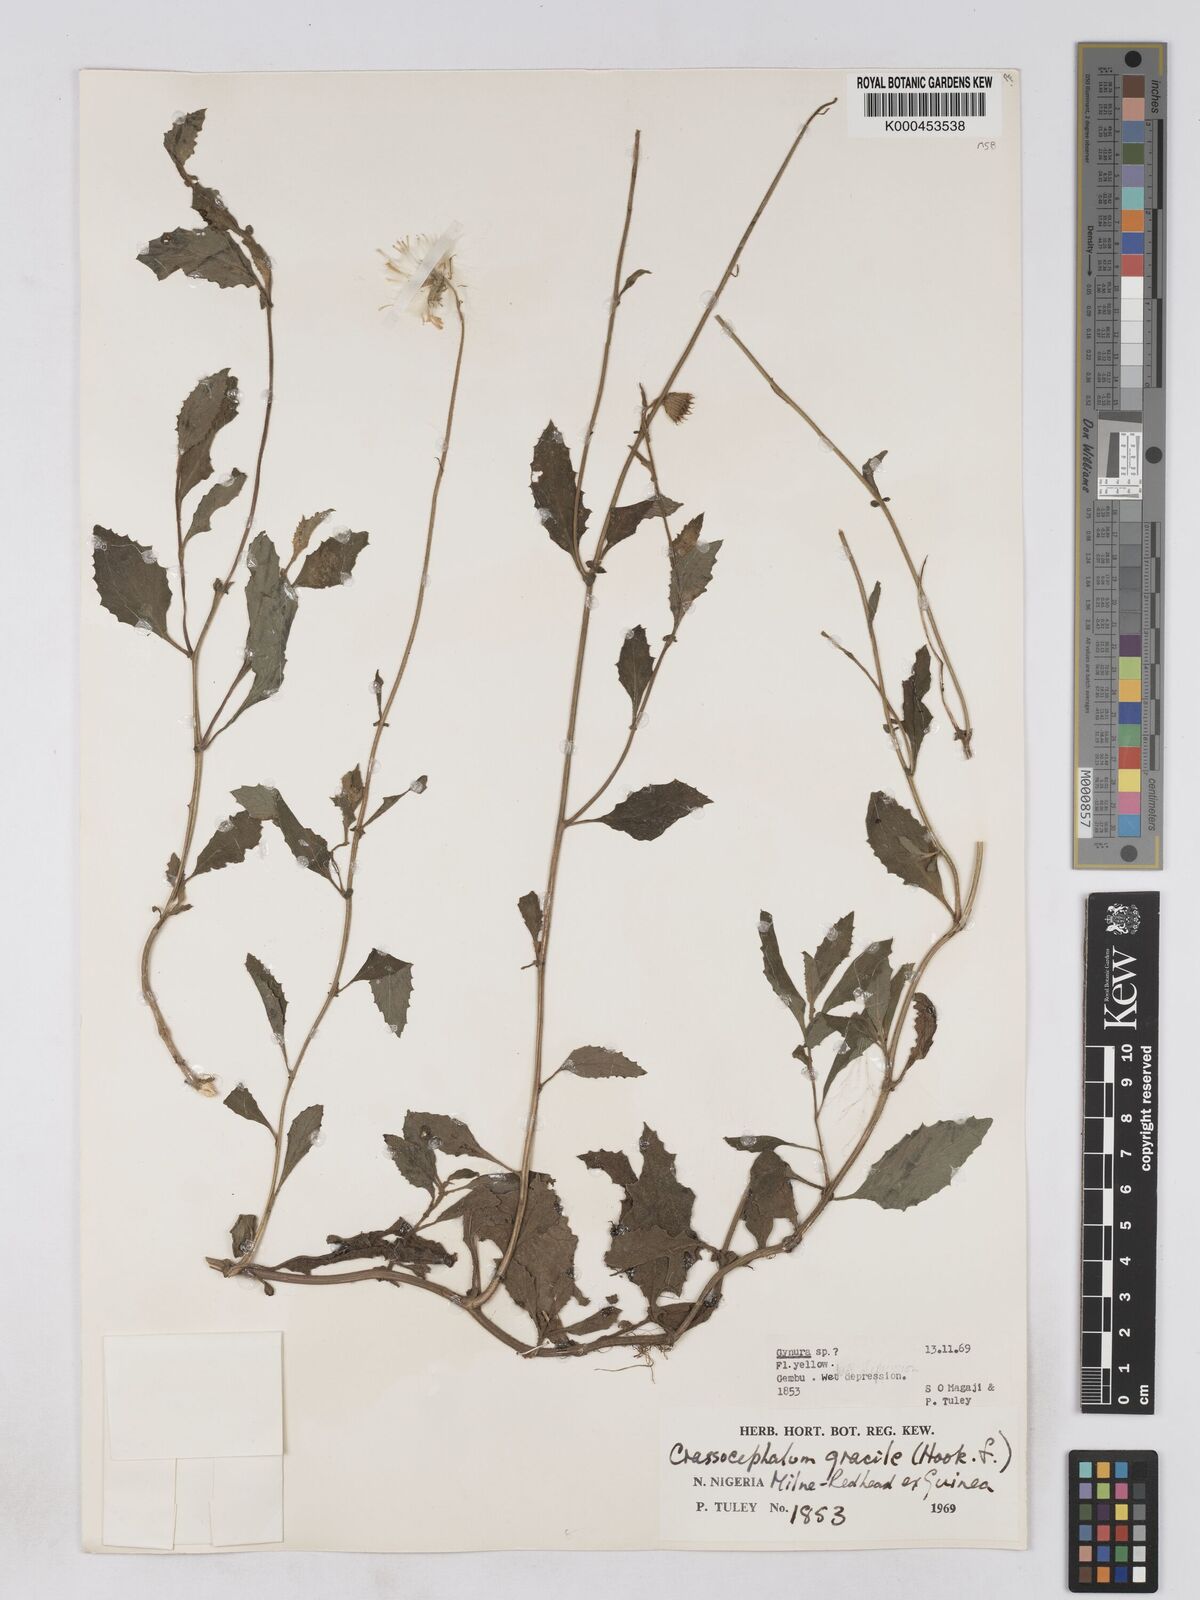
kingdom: Plantae
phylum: Tracheophyta
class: Magnoliopsida
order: Asterales
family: Asteraceae
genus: Crassocephalum
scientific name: Crassocephalum gracile
